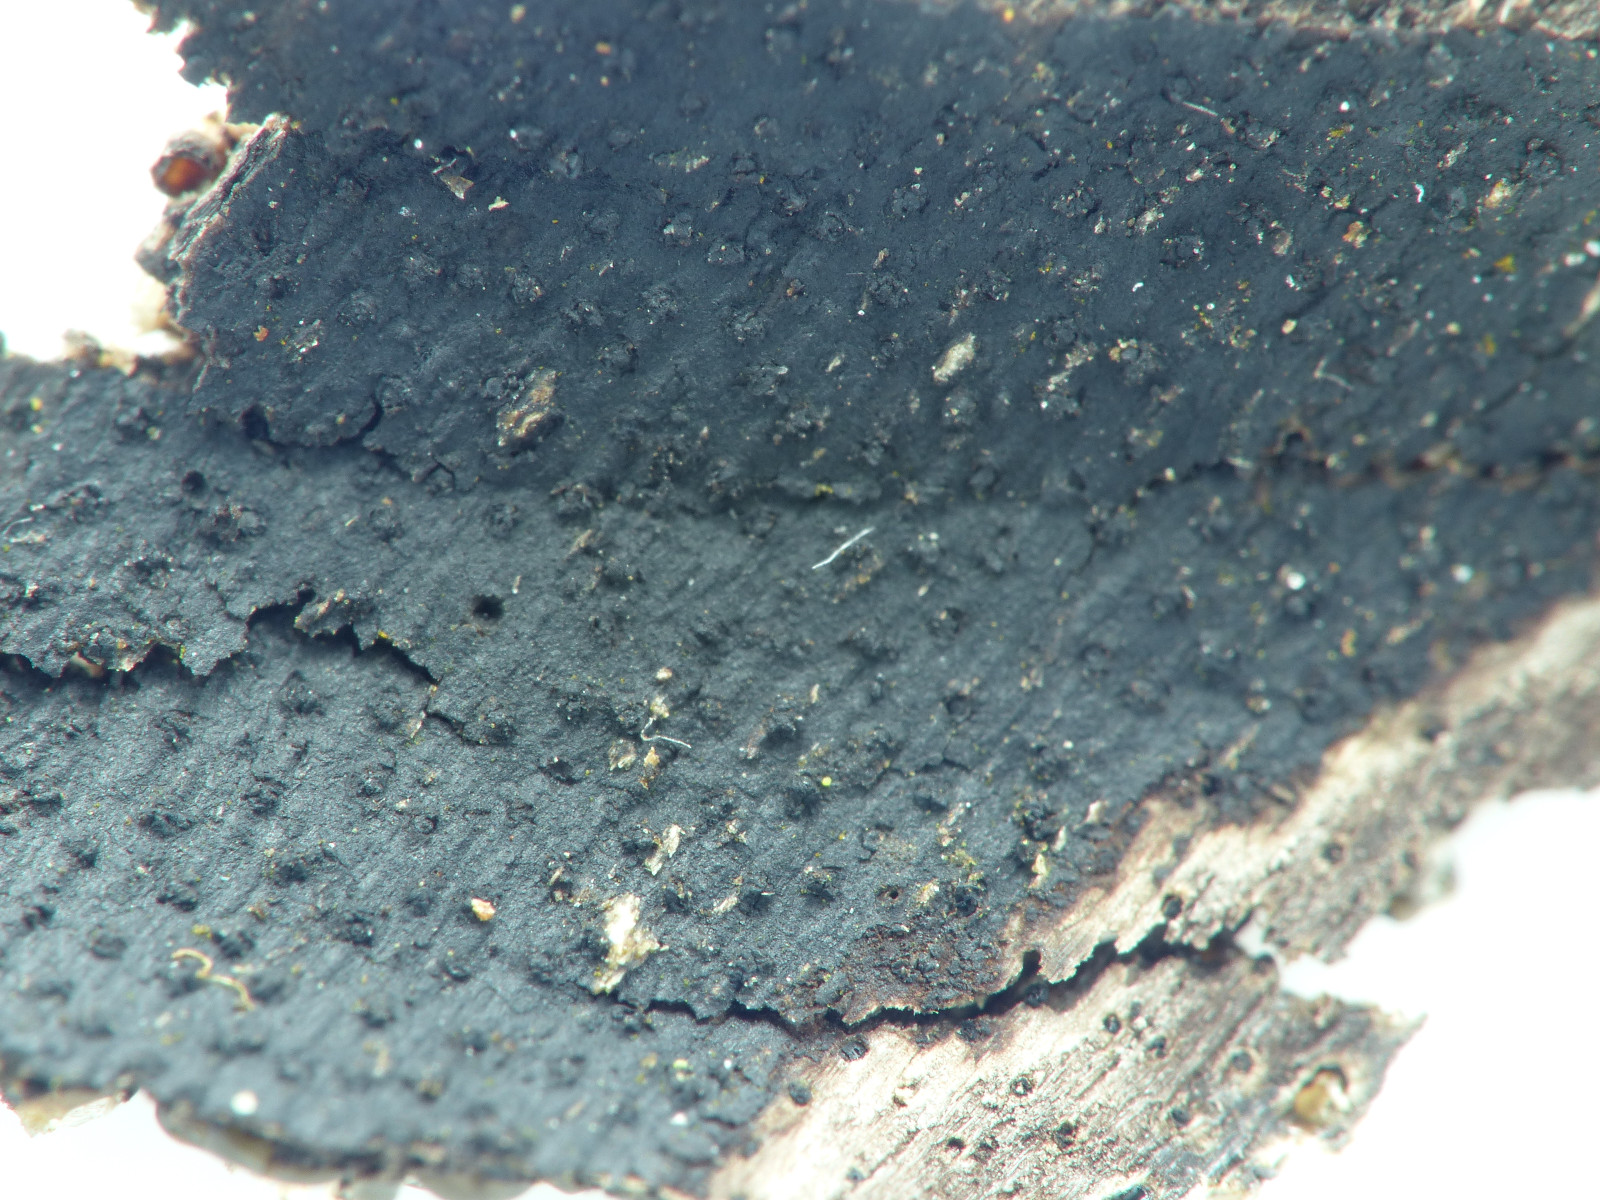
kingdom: Fungi
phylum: Ascomycota
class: Sordariomycetes
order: Xylariales
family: Diatrypaceae
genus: Eutypa
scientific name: Eutypa maura
